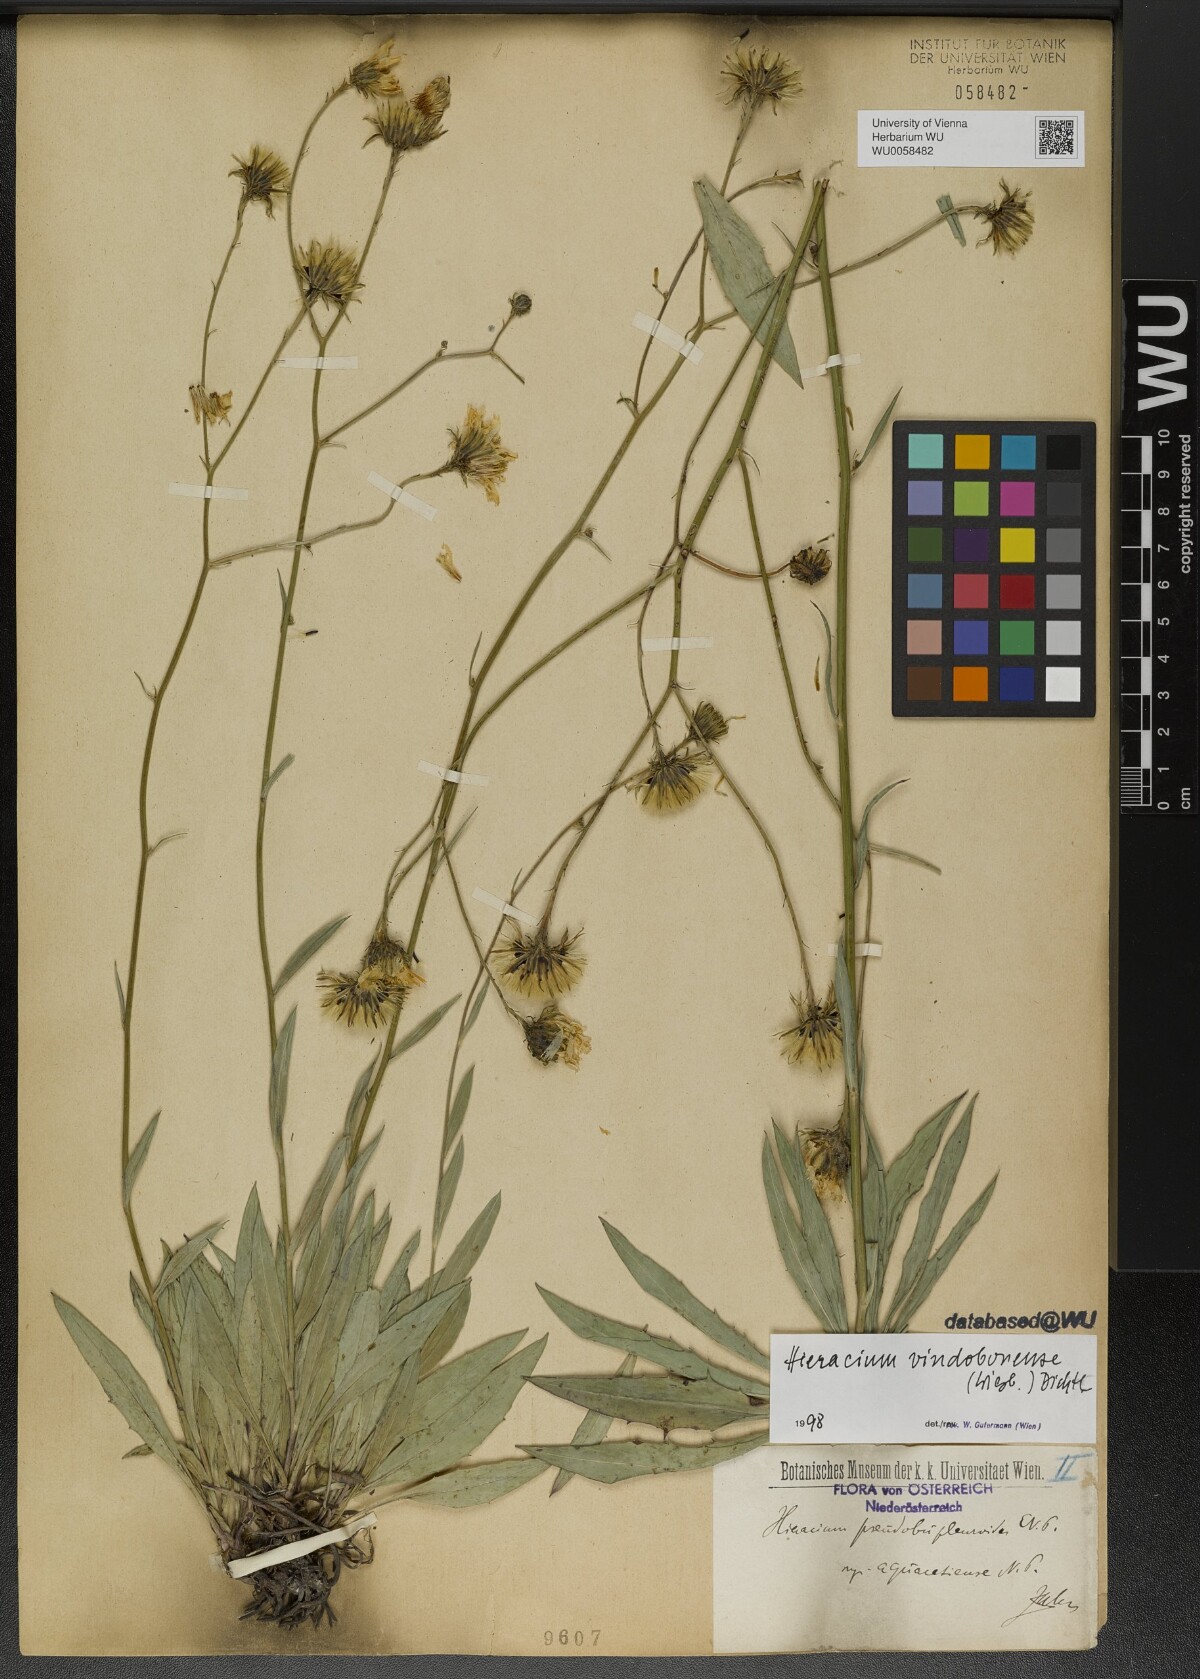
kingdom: Plantae
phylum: Tracheophyta
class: Magnoliopsida
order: Asterales
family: Asteraceae
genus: Hieracium
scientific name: Hieracium vindobonense
